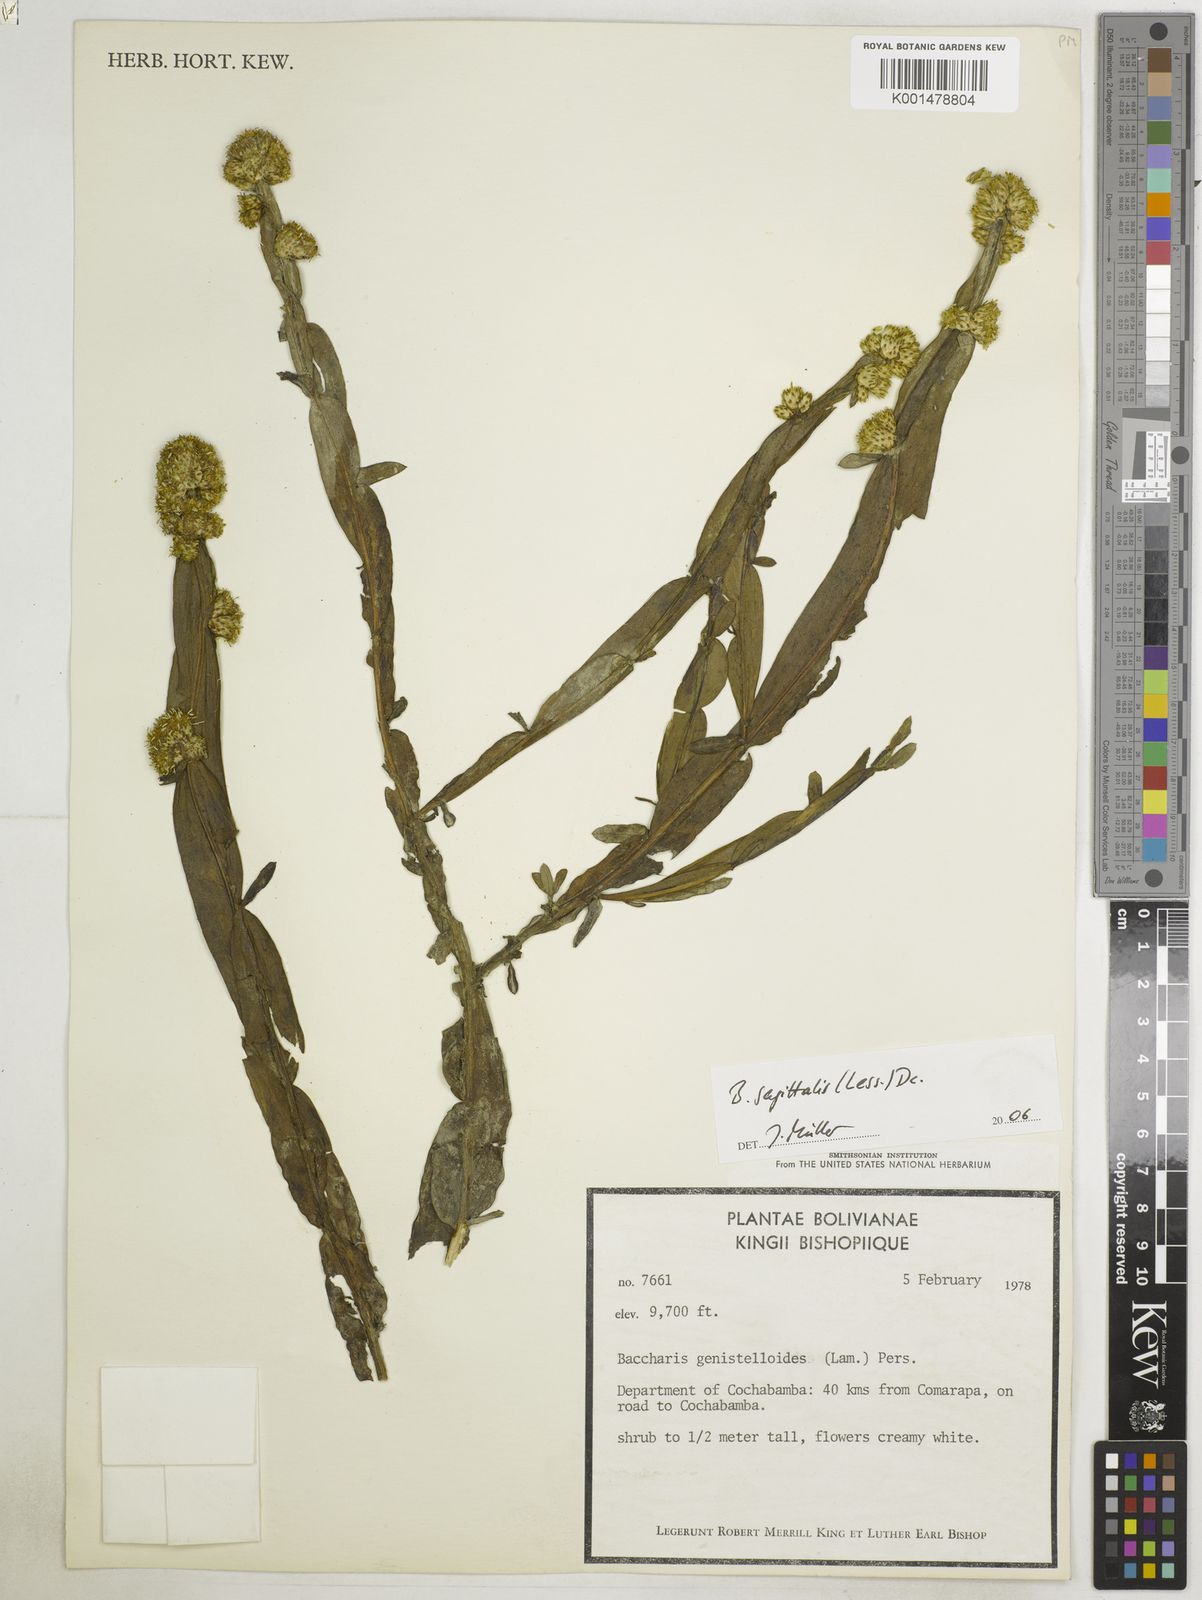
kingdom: Plantae
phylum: Tracheophyta
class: Magnoliopsida
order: Asterales
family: Asteraceae
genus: Baccharis
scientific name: Baccharis sagittalis
